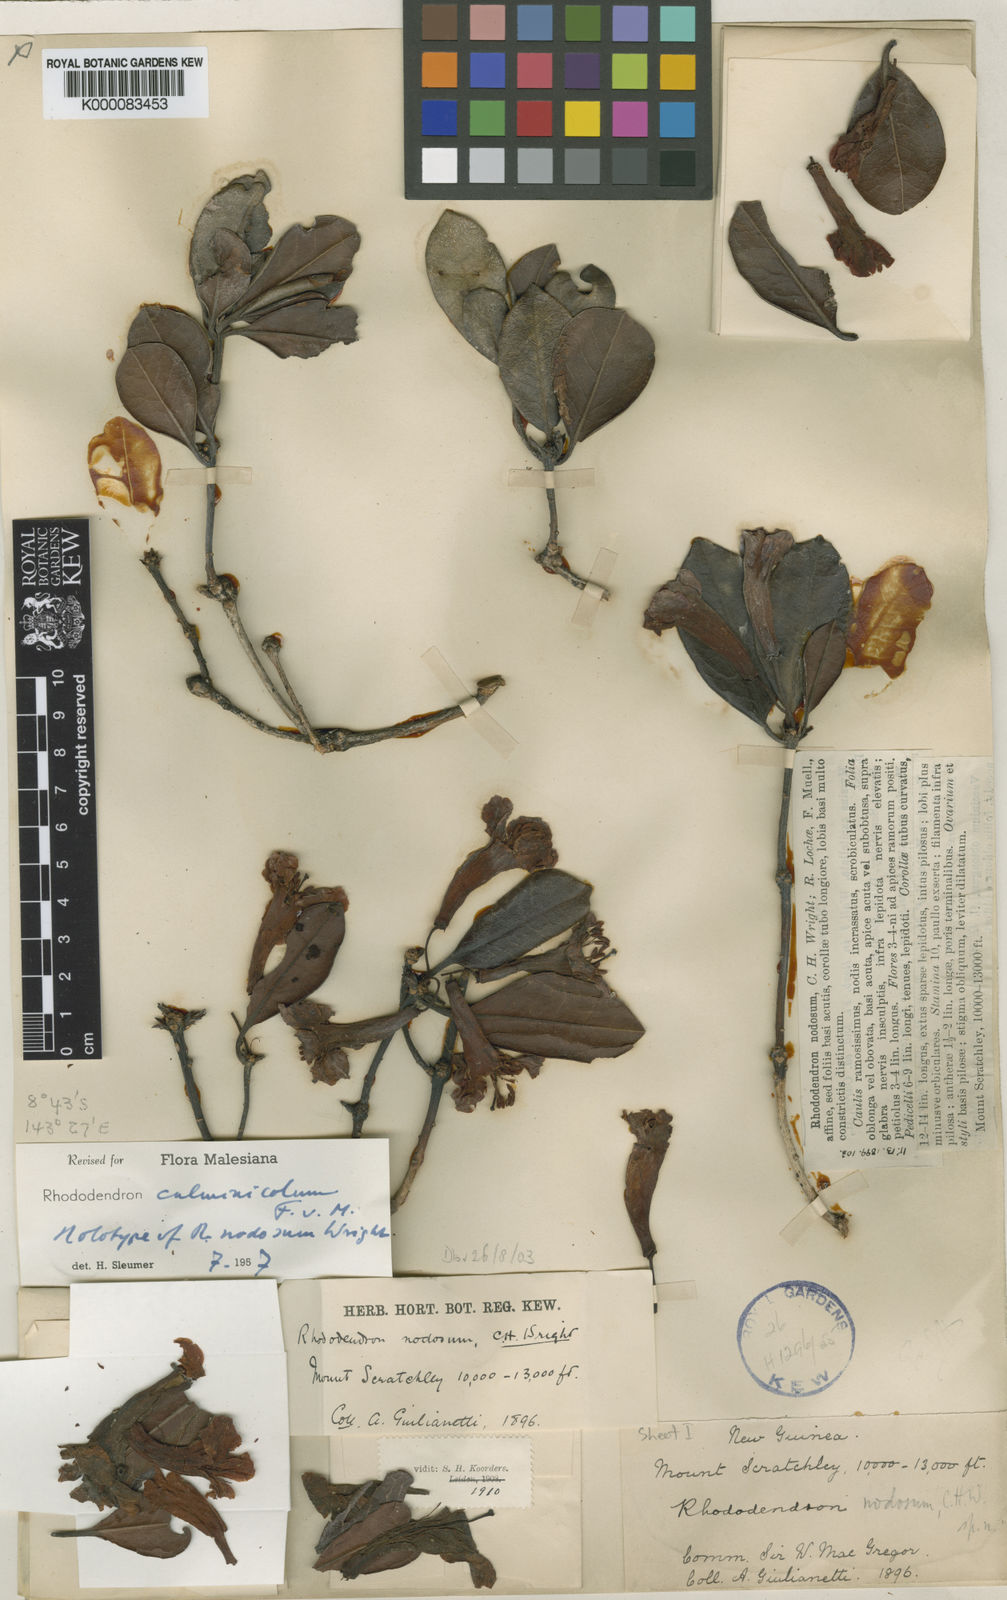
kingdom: Plantae
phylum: Tracheophyta
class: Magnoliopsida
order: Ericales
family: Ericaceae
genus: Rhododendron
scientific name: Rhododendron culminicola
